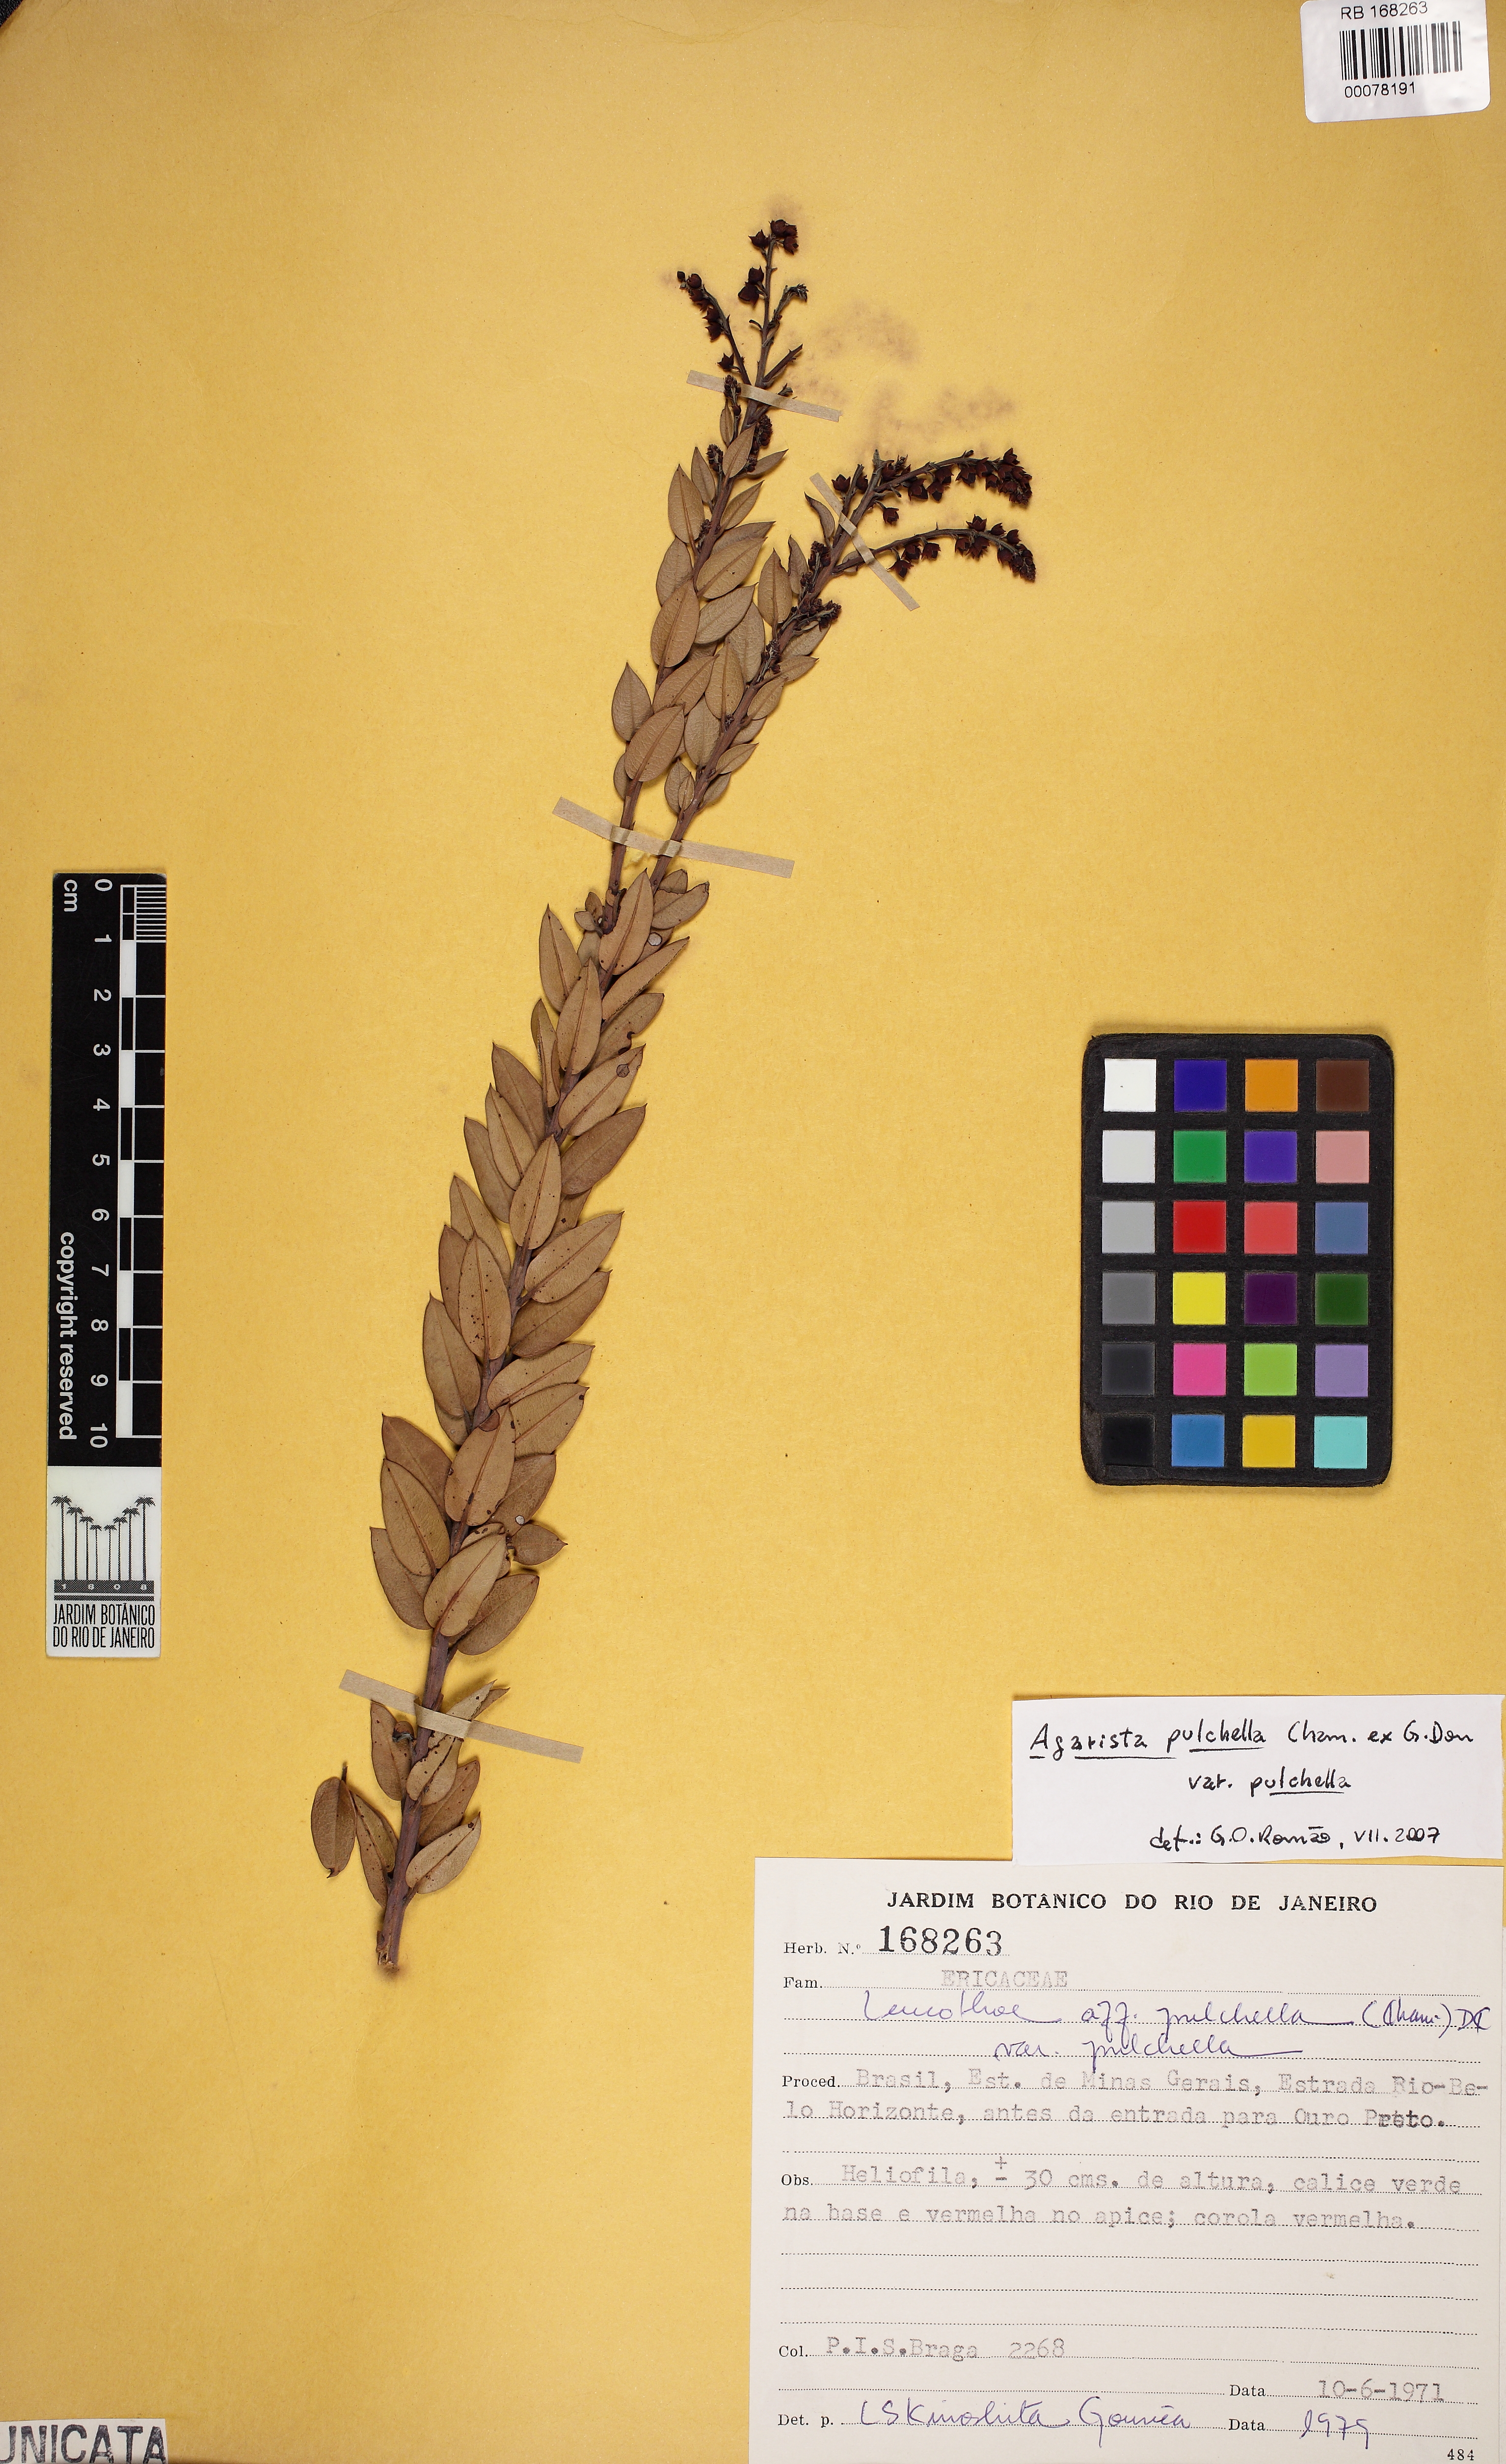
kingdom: Plantae
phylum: Tracheophyta
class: Magnoliopsida
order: Ericales
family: Ericaceae
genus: Agarista
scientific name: Agarista pulchella
